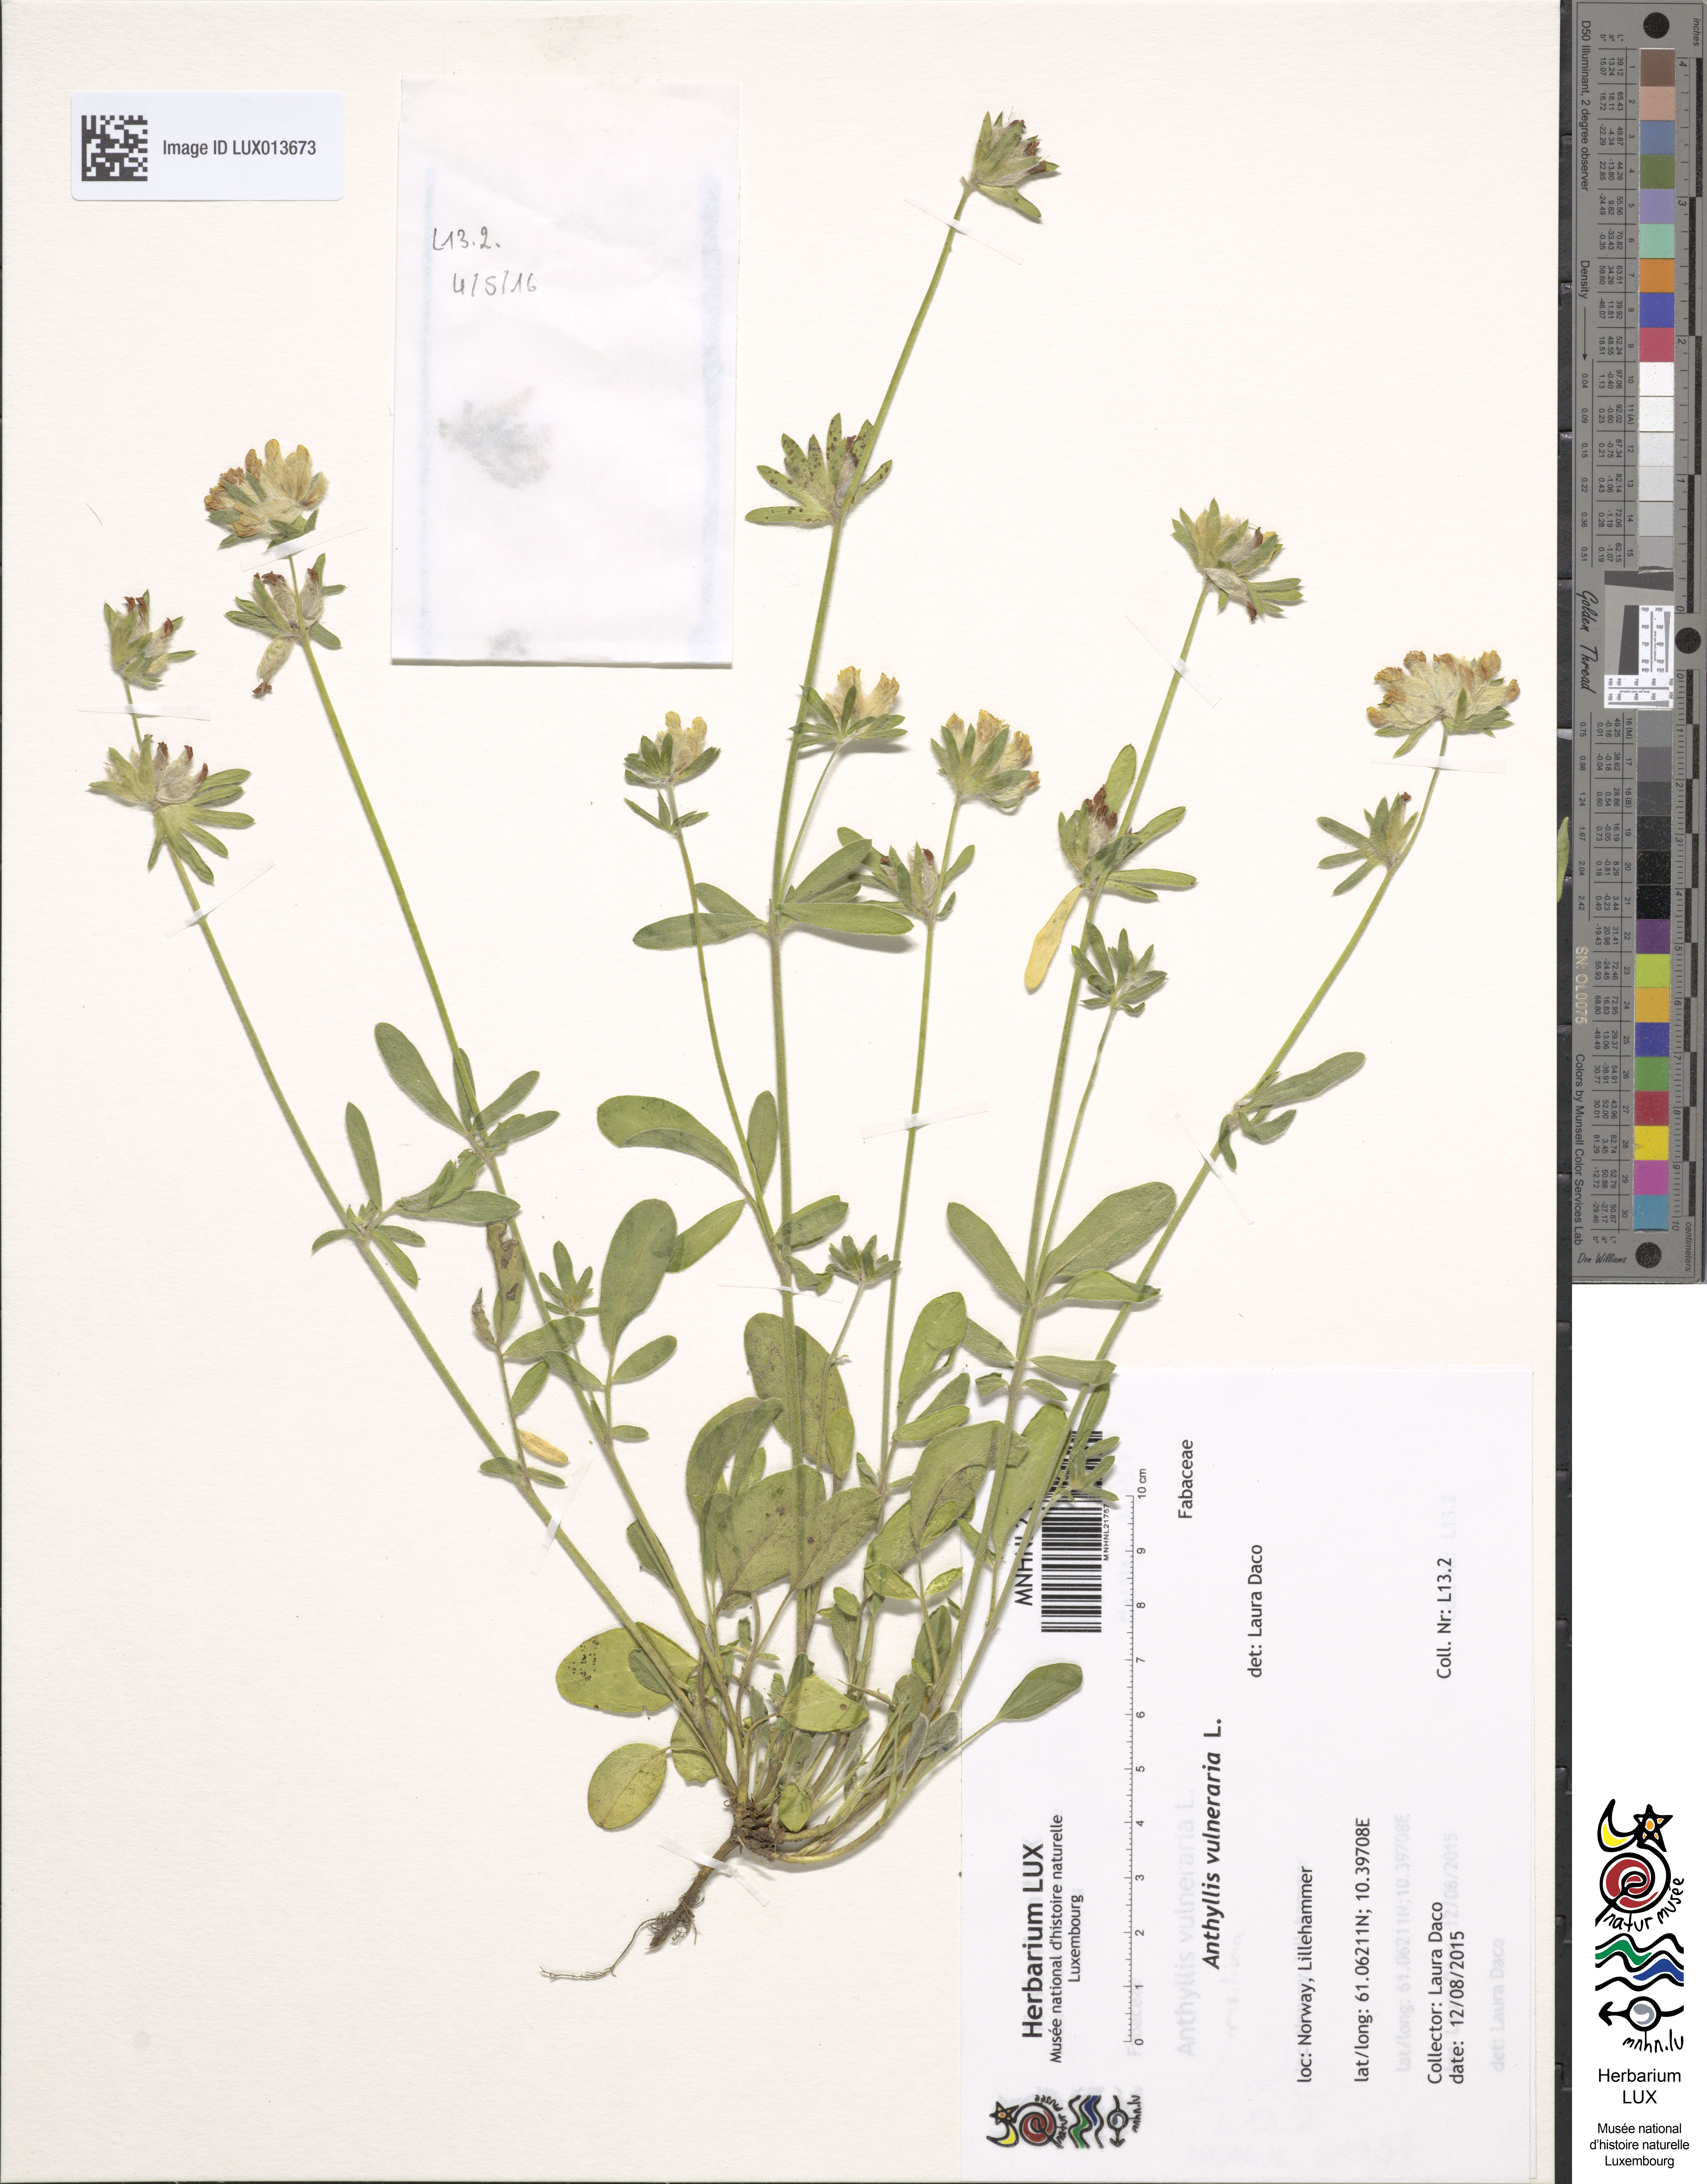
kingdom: Plantae
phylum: Tracheophyta
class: Magnoliopsida
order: Fabales
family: Fabaceae
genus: Anthyllis
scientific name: Anthyllis vulneraria
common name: Kidney vetch
